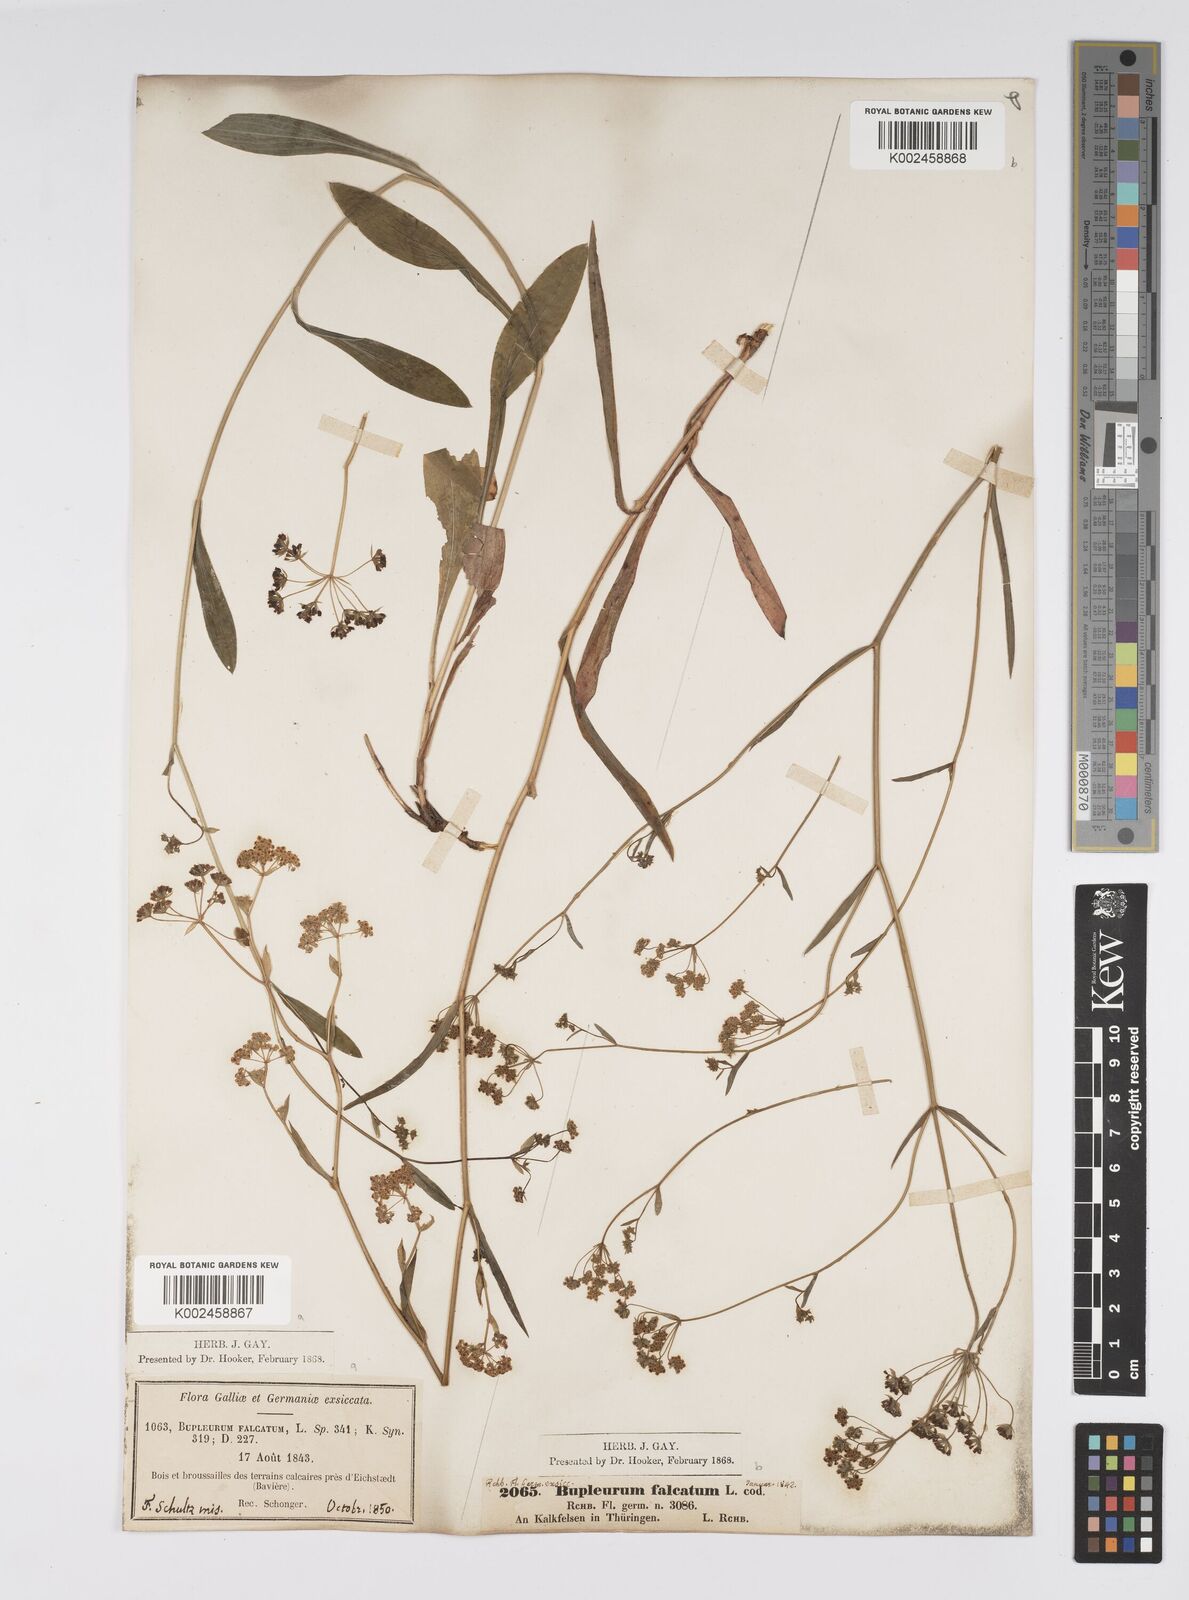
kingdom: Plantae
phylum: Tracheophyta
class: Magnoliopsida
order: Apiales
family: Apiaceae
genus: Bupleurum
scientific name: Bupleurum falcatum
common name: Sickle-leaved hare's-ear
